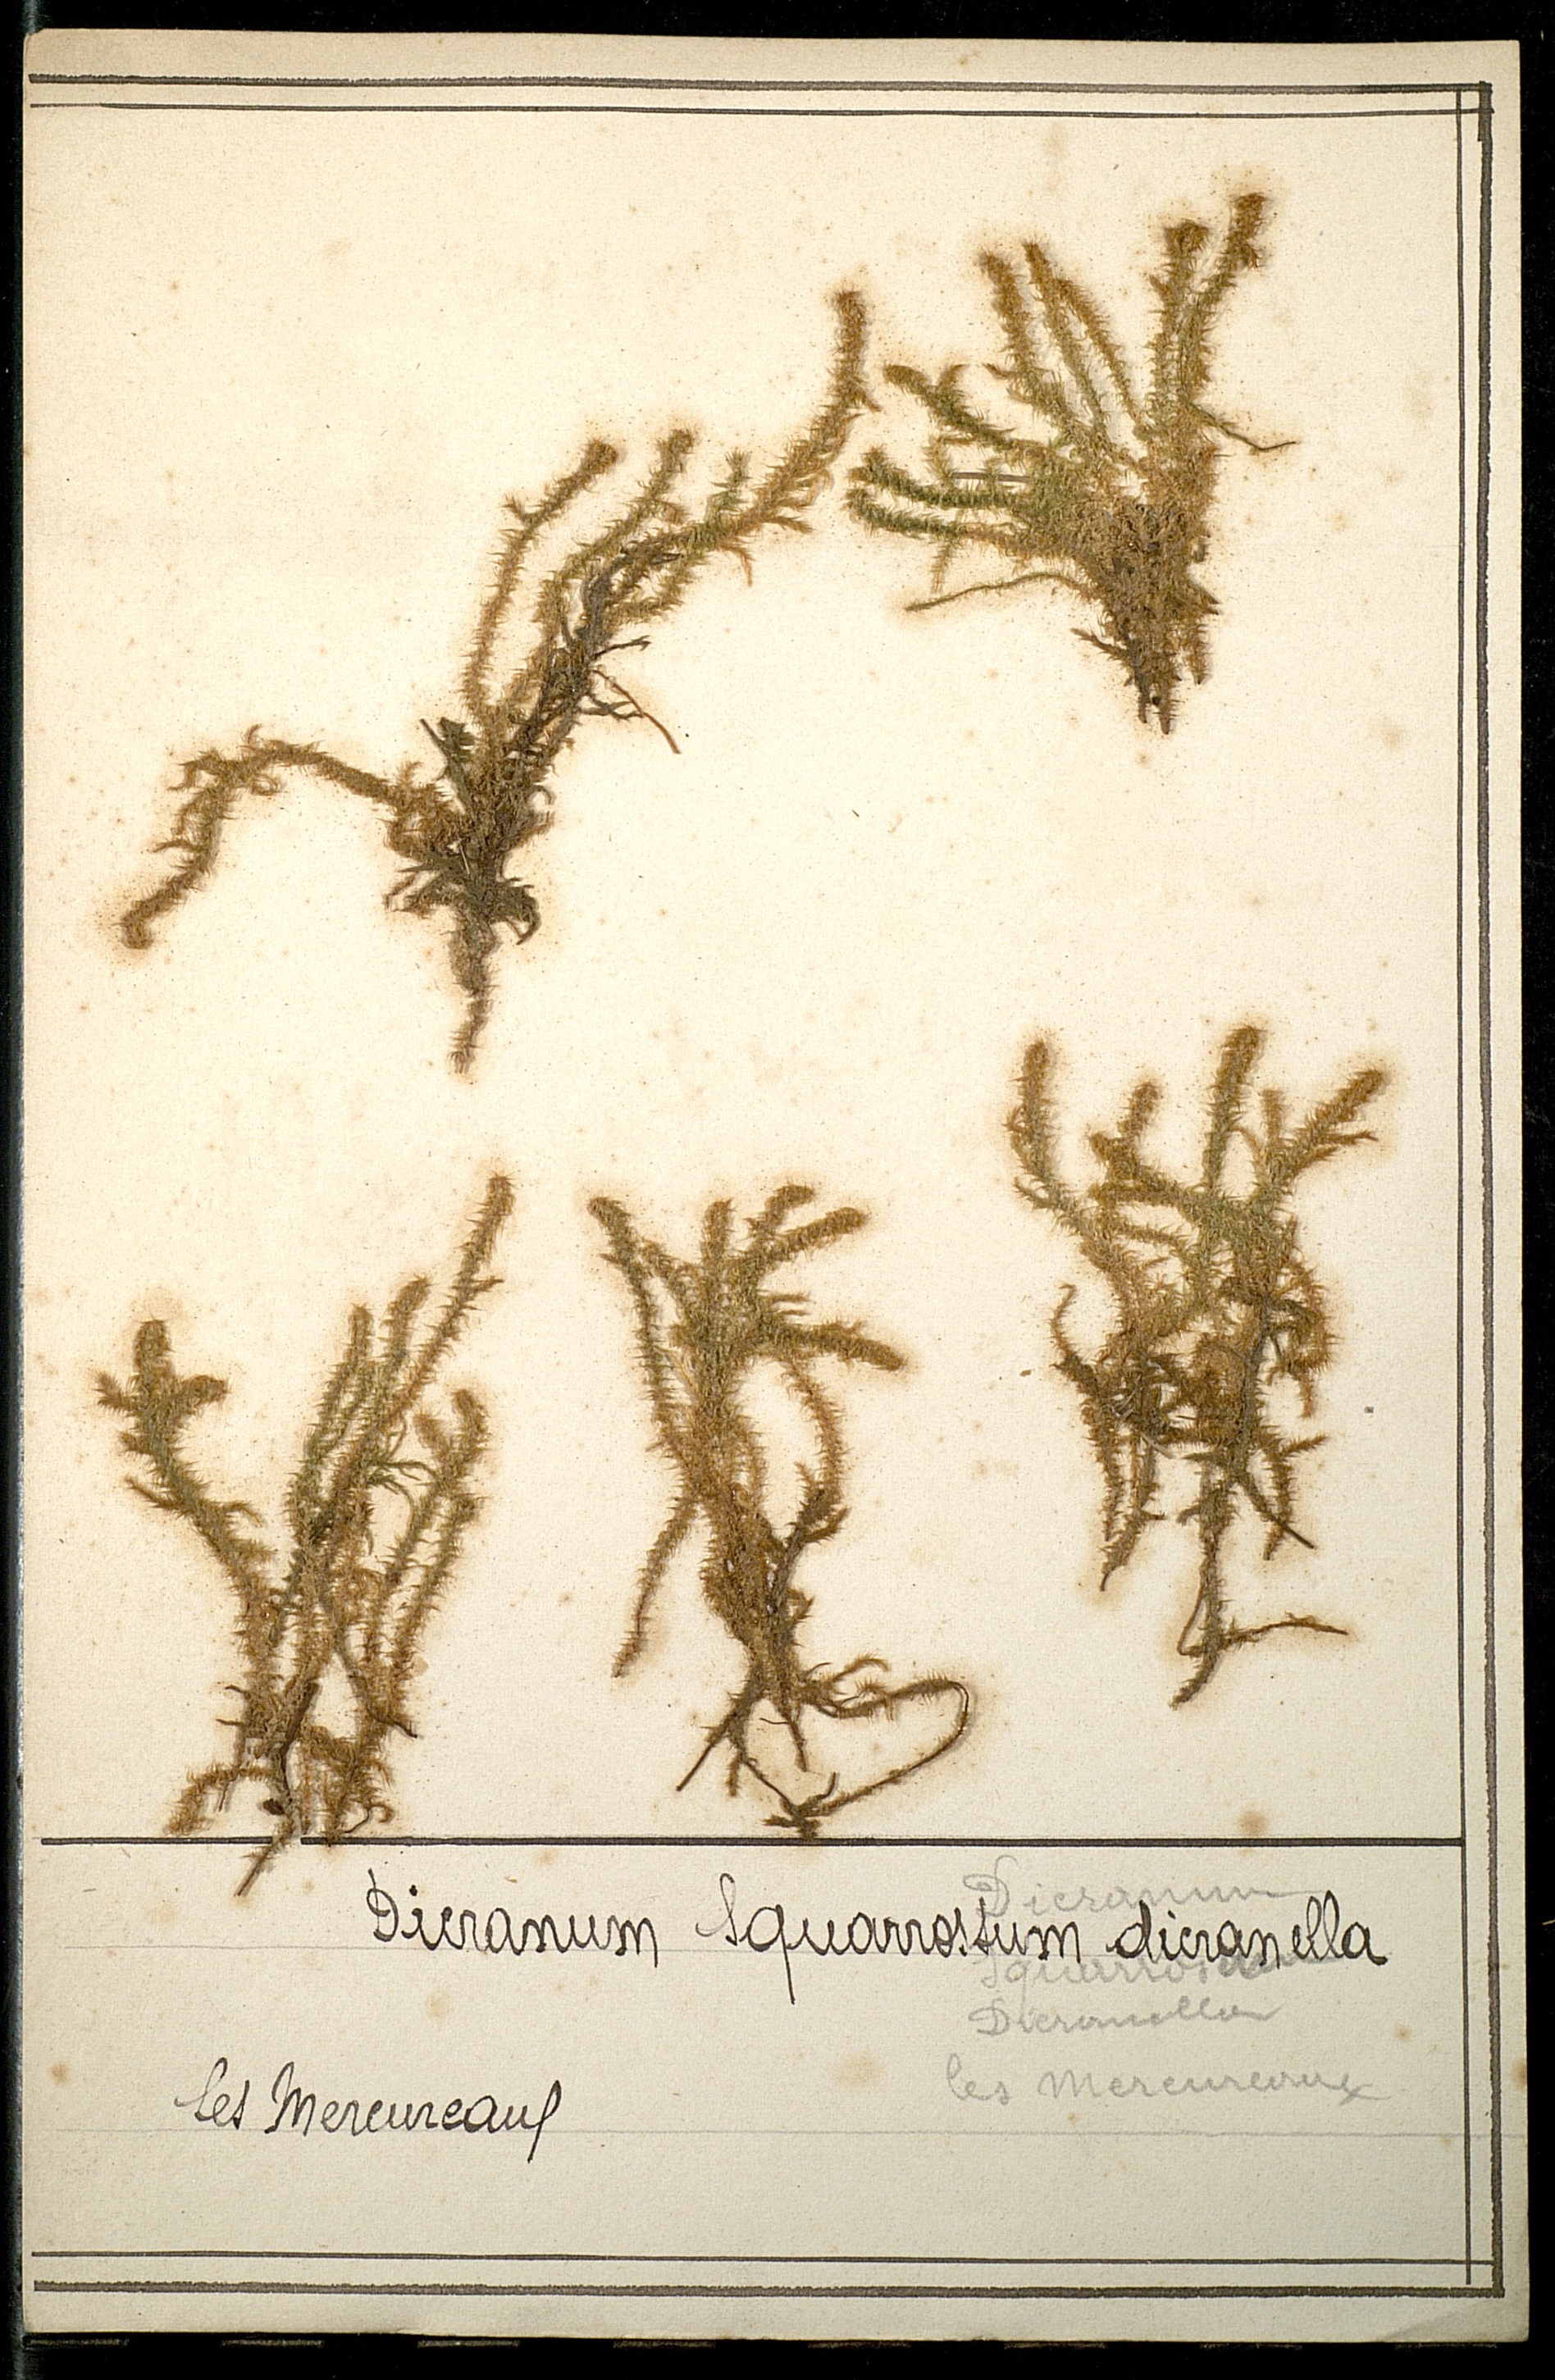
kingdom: Plantae
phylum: Bryophyta
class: Bryopsida
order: Dicranales
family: Aongstroemiaceae
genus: Diobelonella
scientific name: Diobelonella palustris
